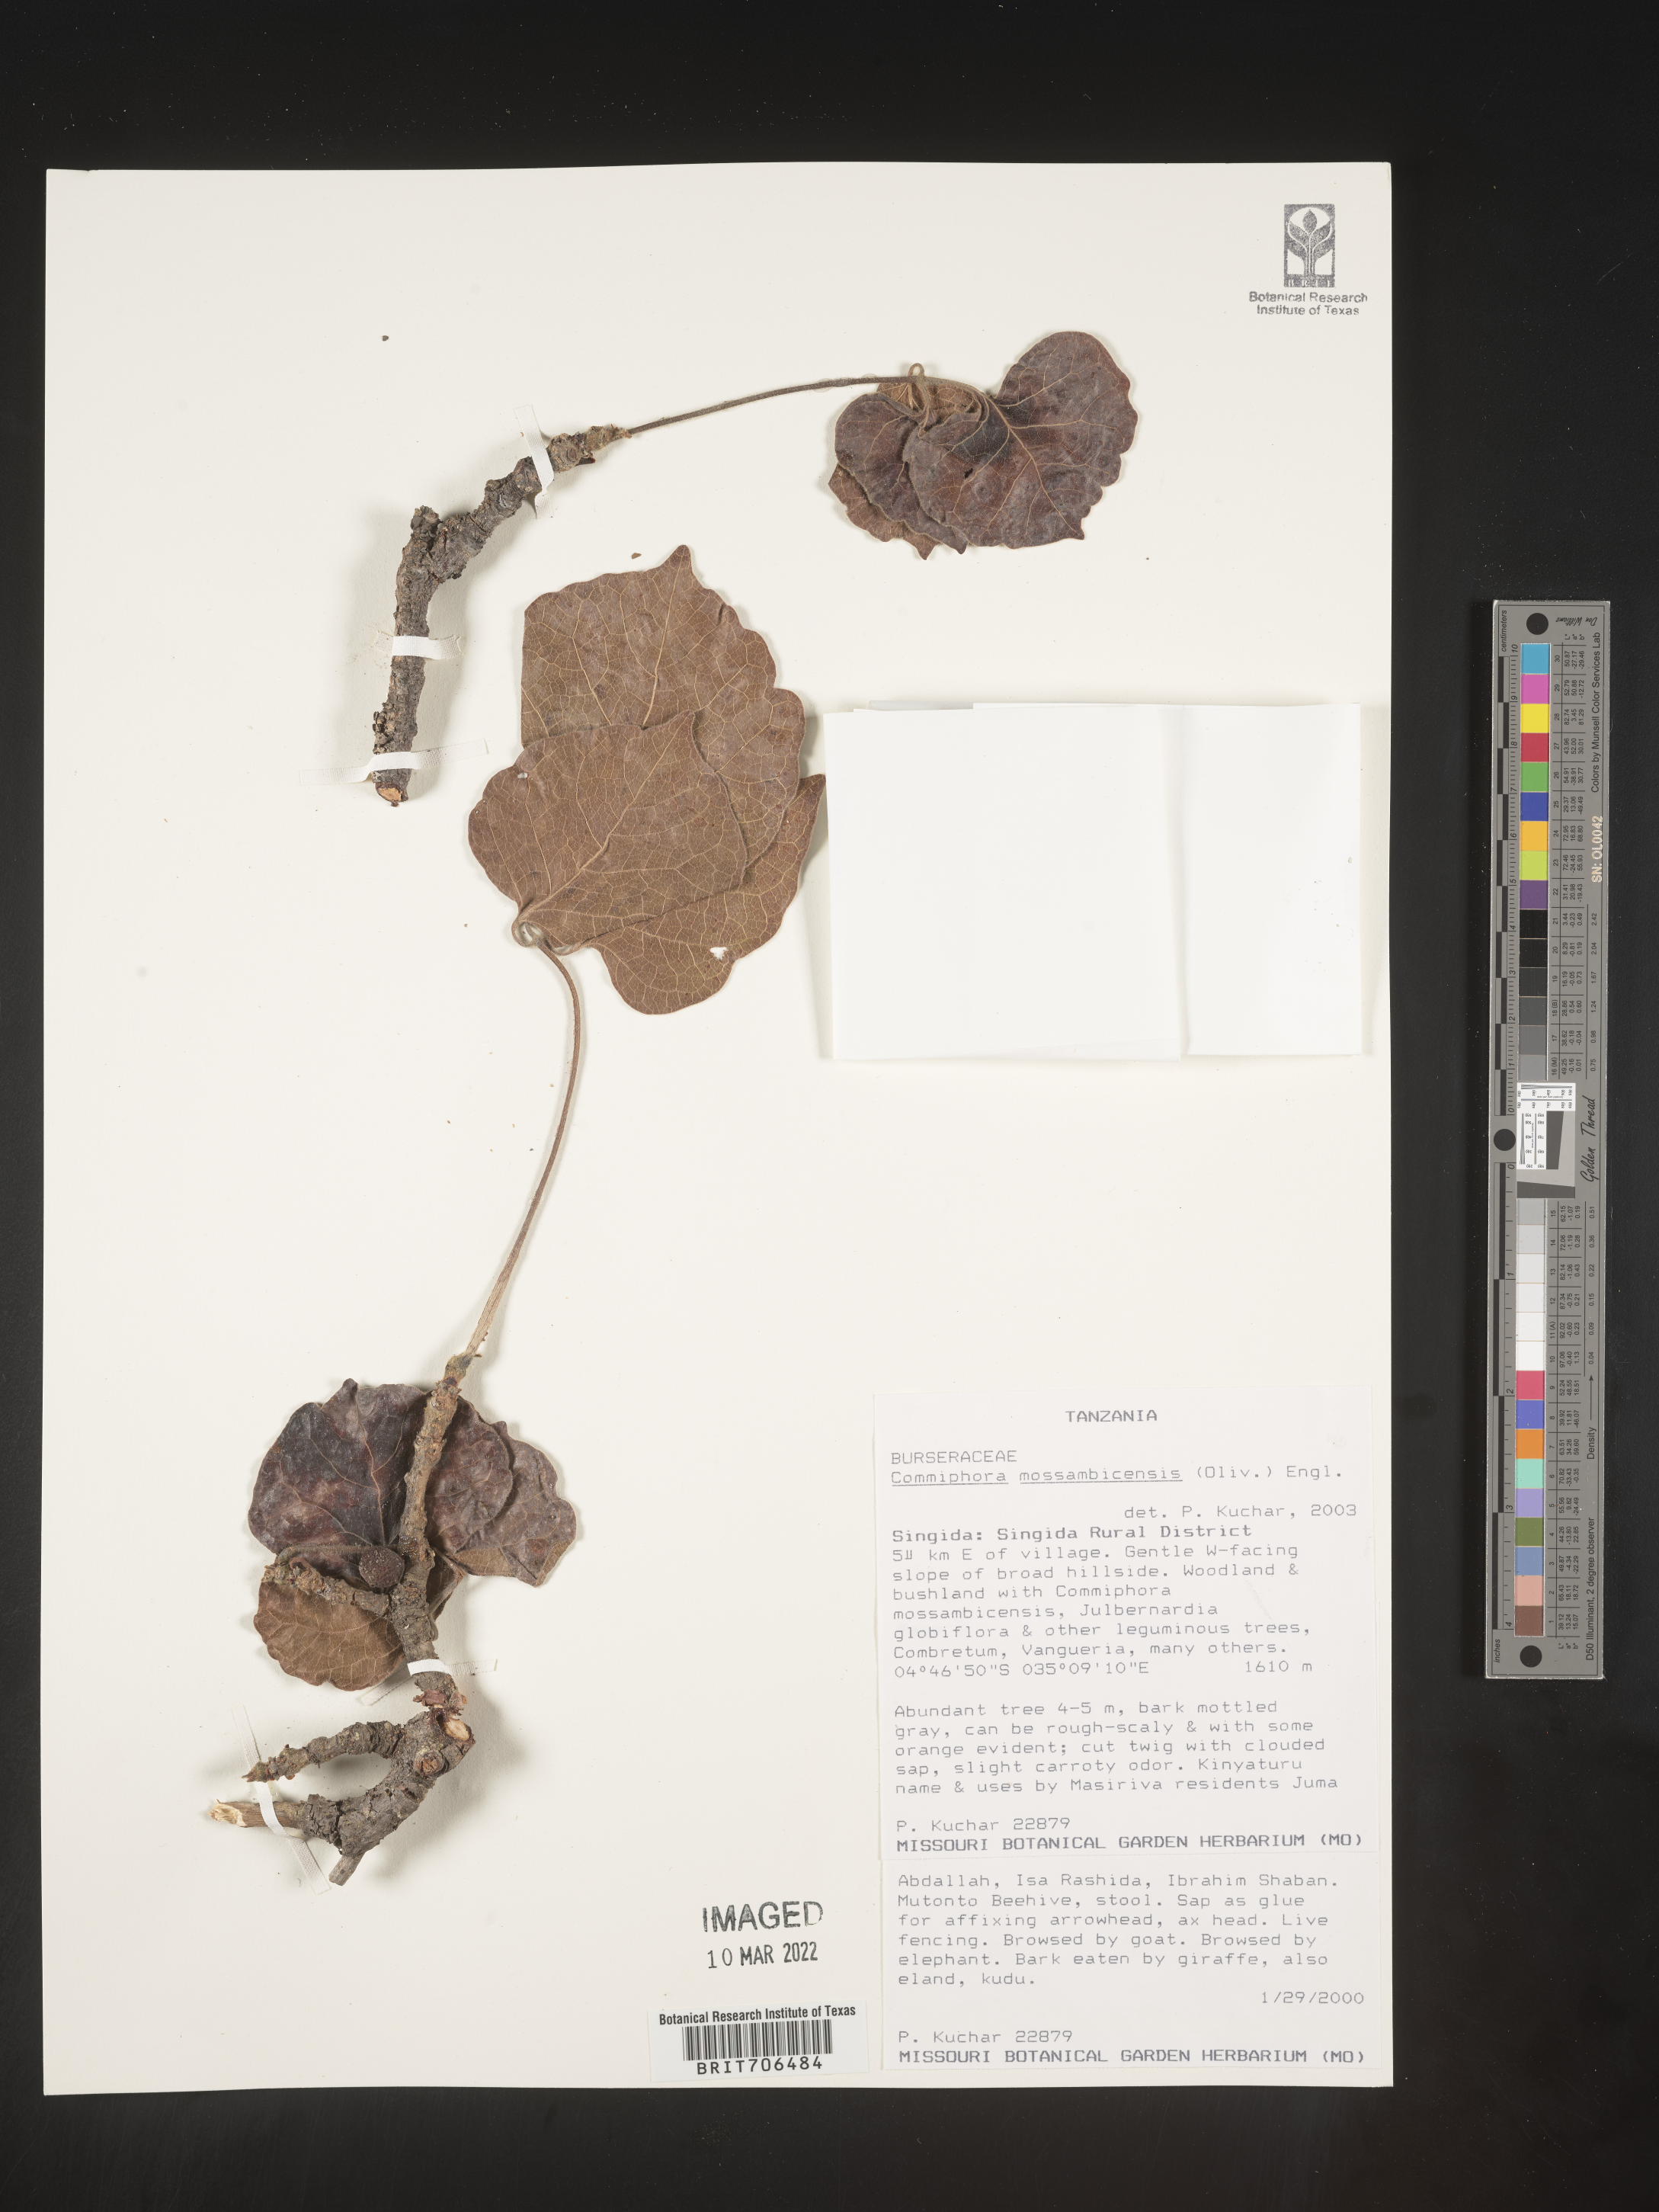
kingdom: Plantae
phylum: Tracheophyta
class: Magnoliopsida
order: Sapindales
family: Burseraceae
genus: Commiphora
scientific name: Commiphora
